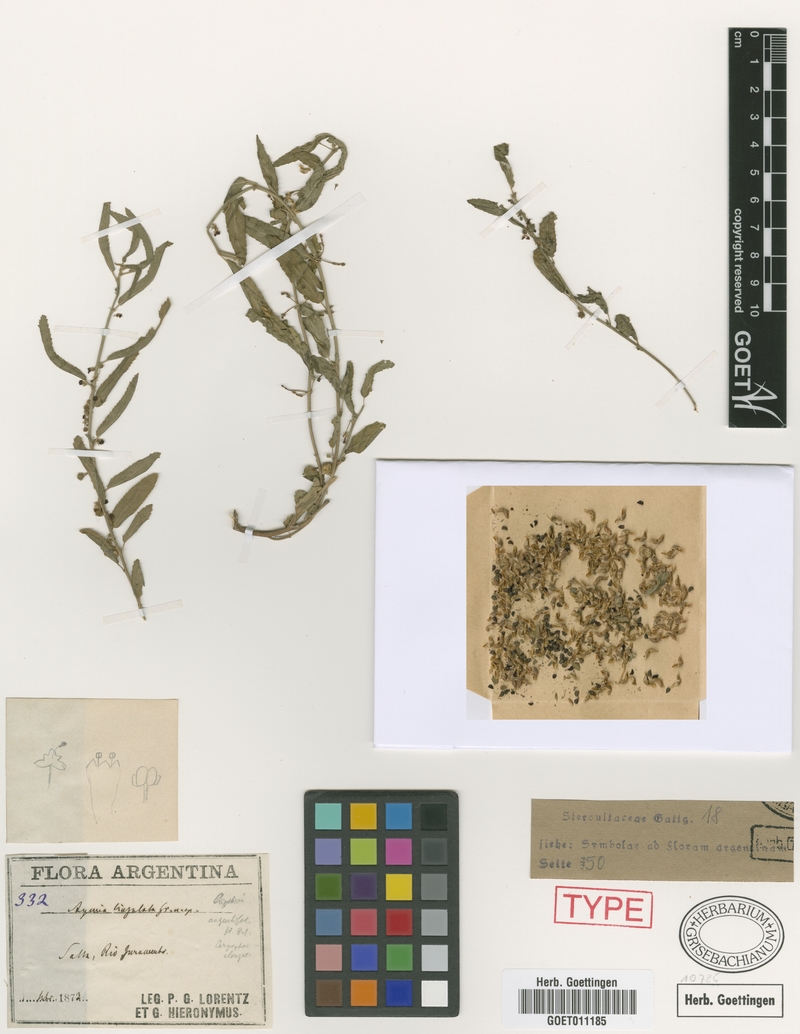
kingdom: Plantae
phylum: Tracheophyta
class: Magnoliopsida
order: Malvales
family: Malvaceae
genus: Ayenia
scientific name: Ayenia lingulata
